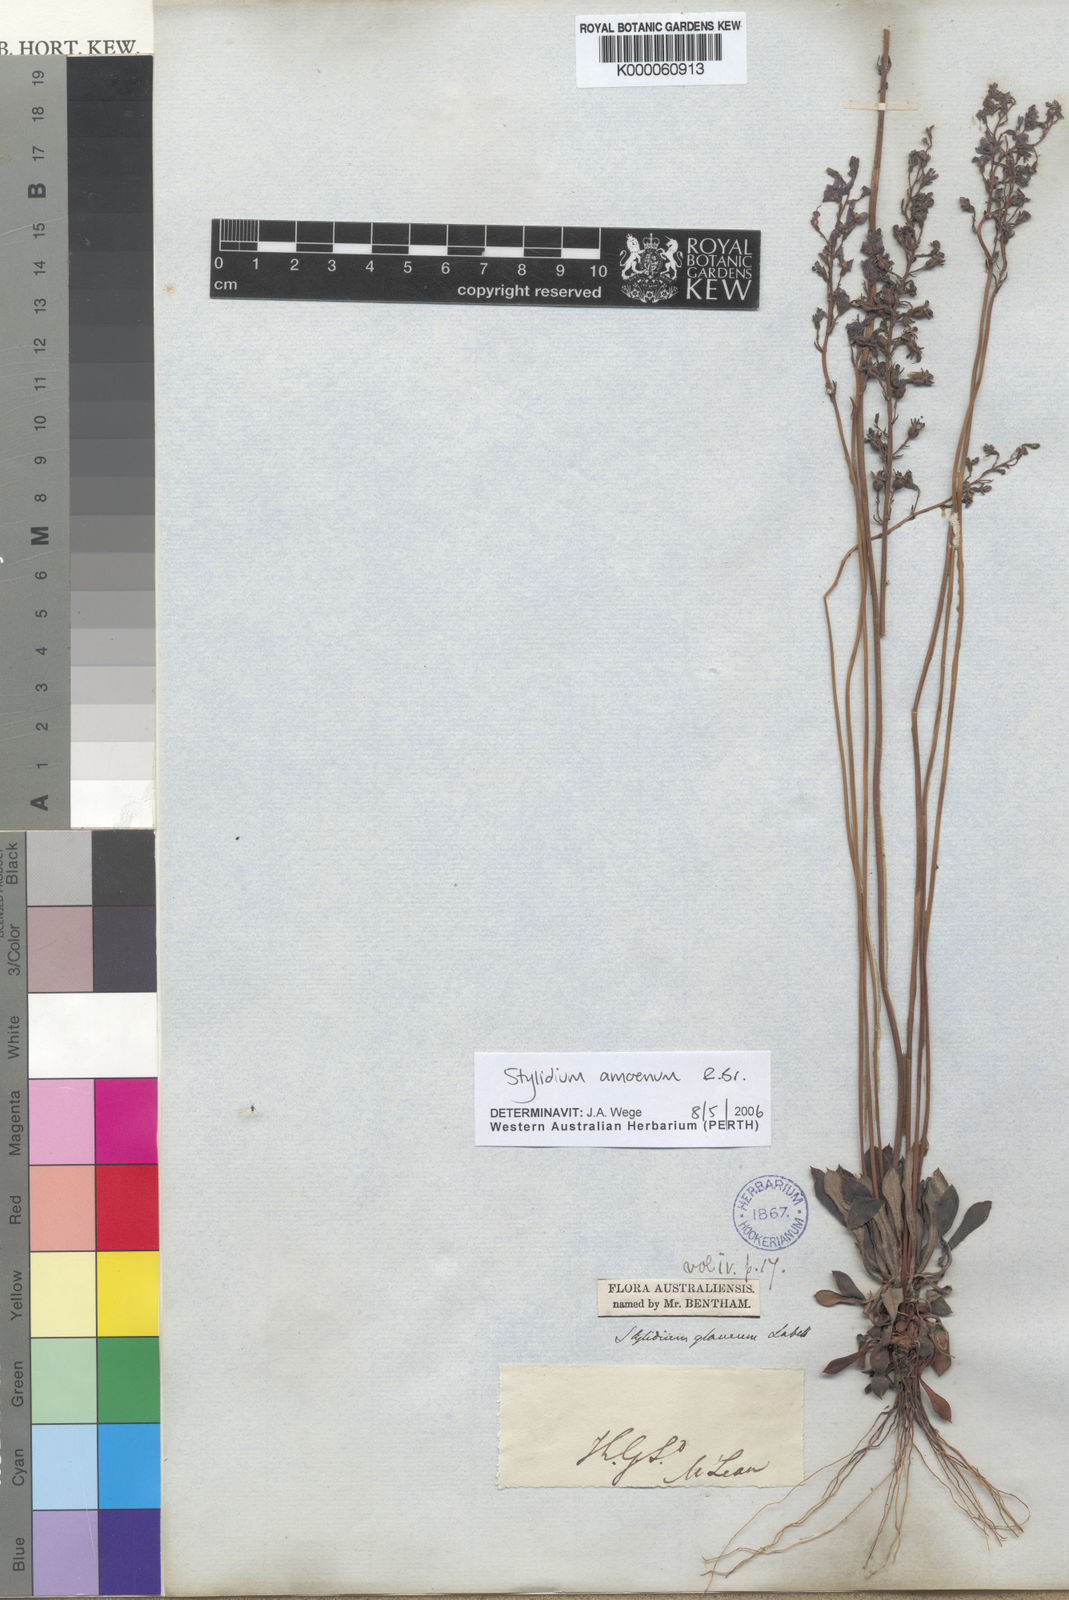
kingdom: Plantae
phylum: Tracheophyta
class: Magnoliopsida
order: Asterales
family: Stylidiaceae
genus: Stylidium
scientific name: Stylidium amoenum
